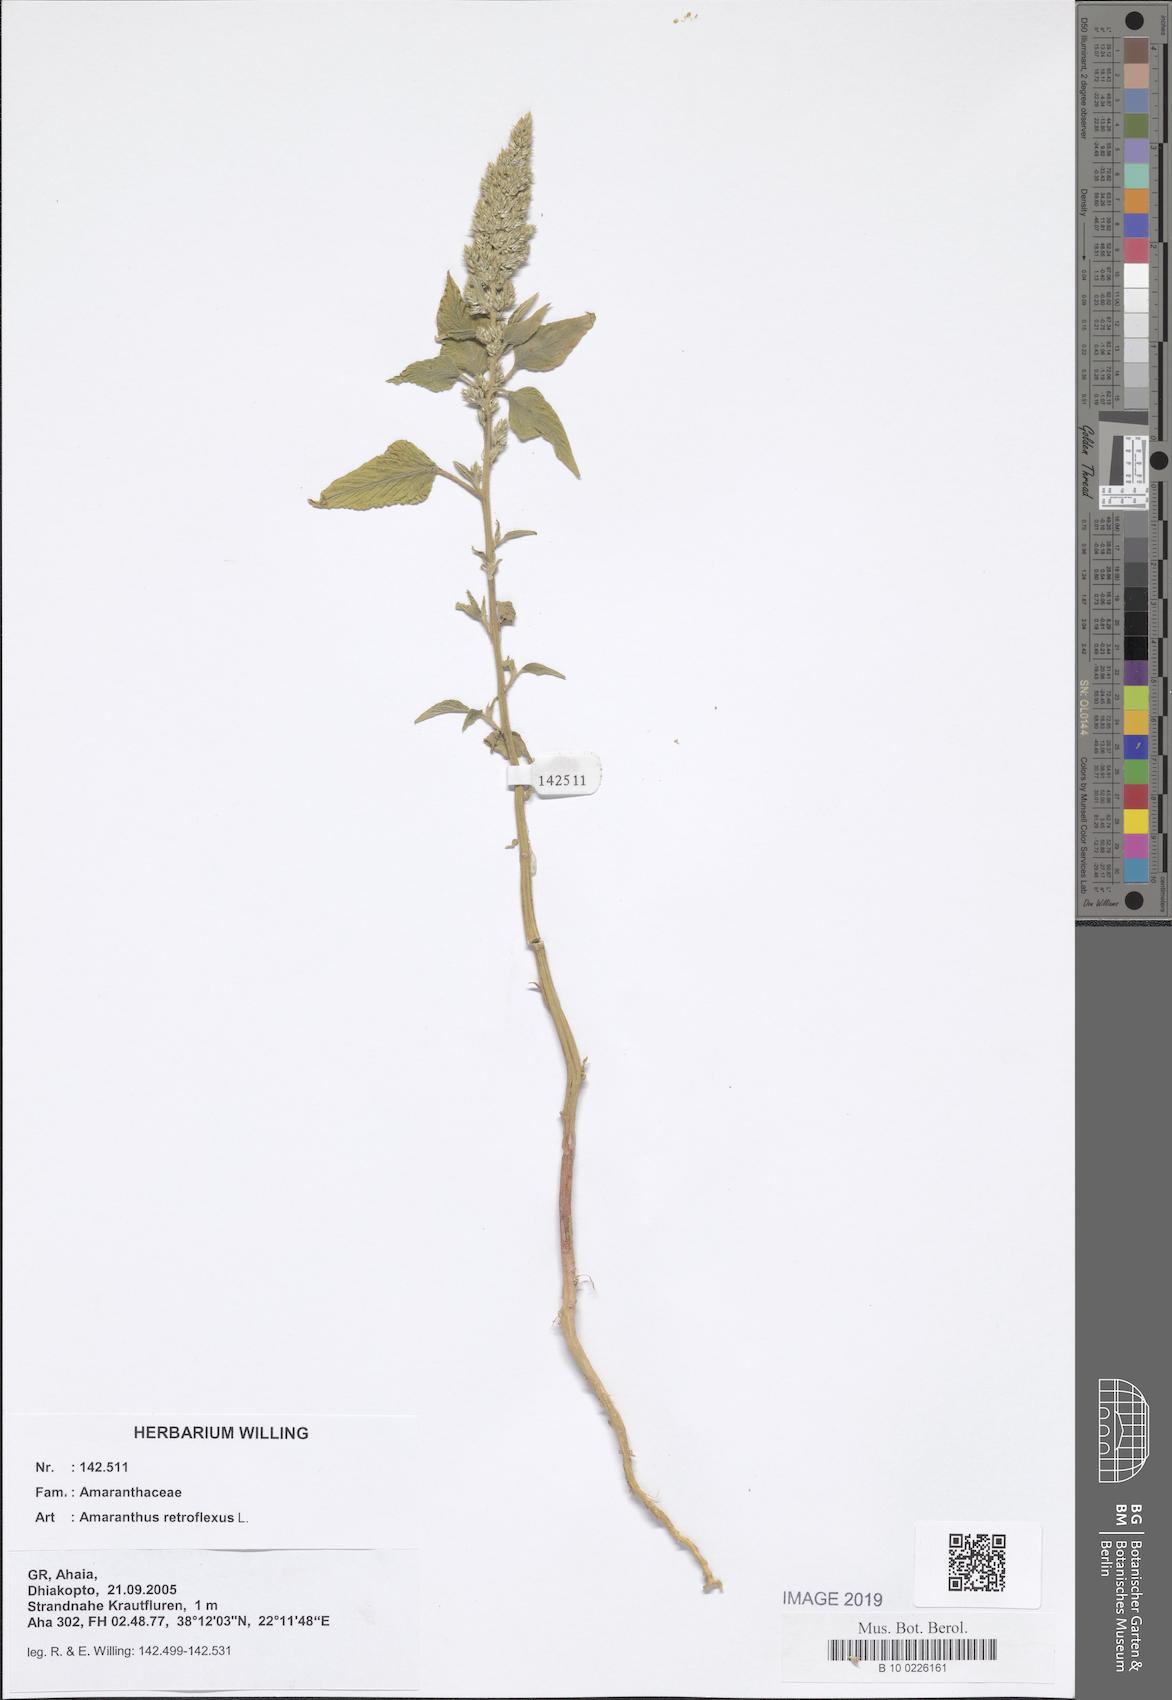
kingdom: Plantae
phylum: Tracheophyta
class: Magnoliopsida
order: Caryophyllales
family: Amaranthaceae
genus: Amaranthus
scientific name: Amaranthus retroflexus
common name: Redroot amaranth
